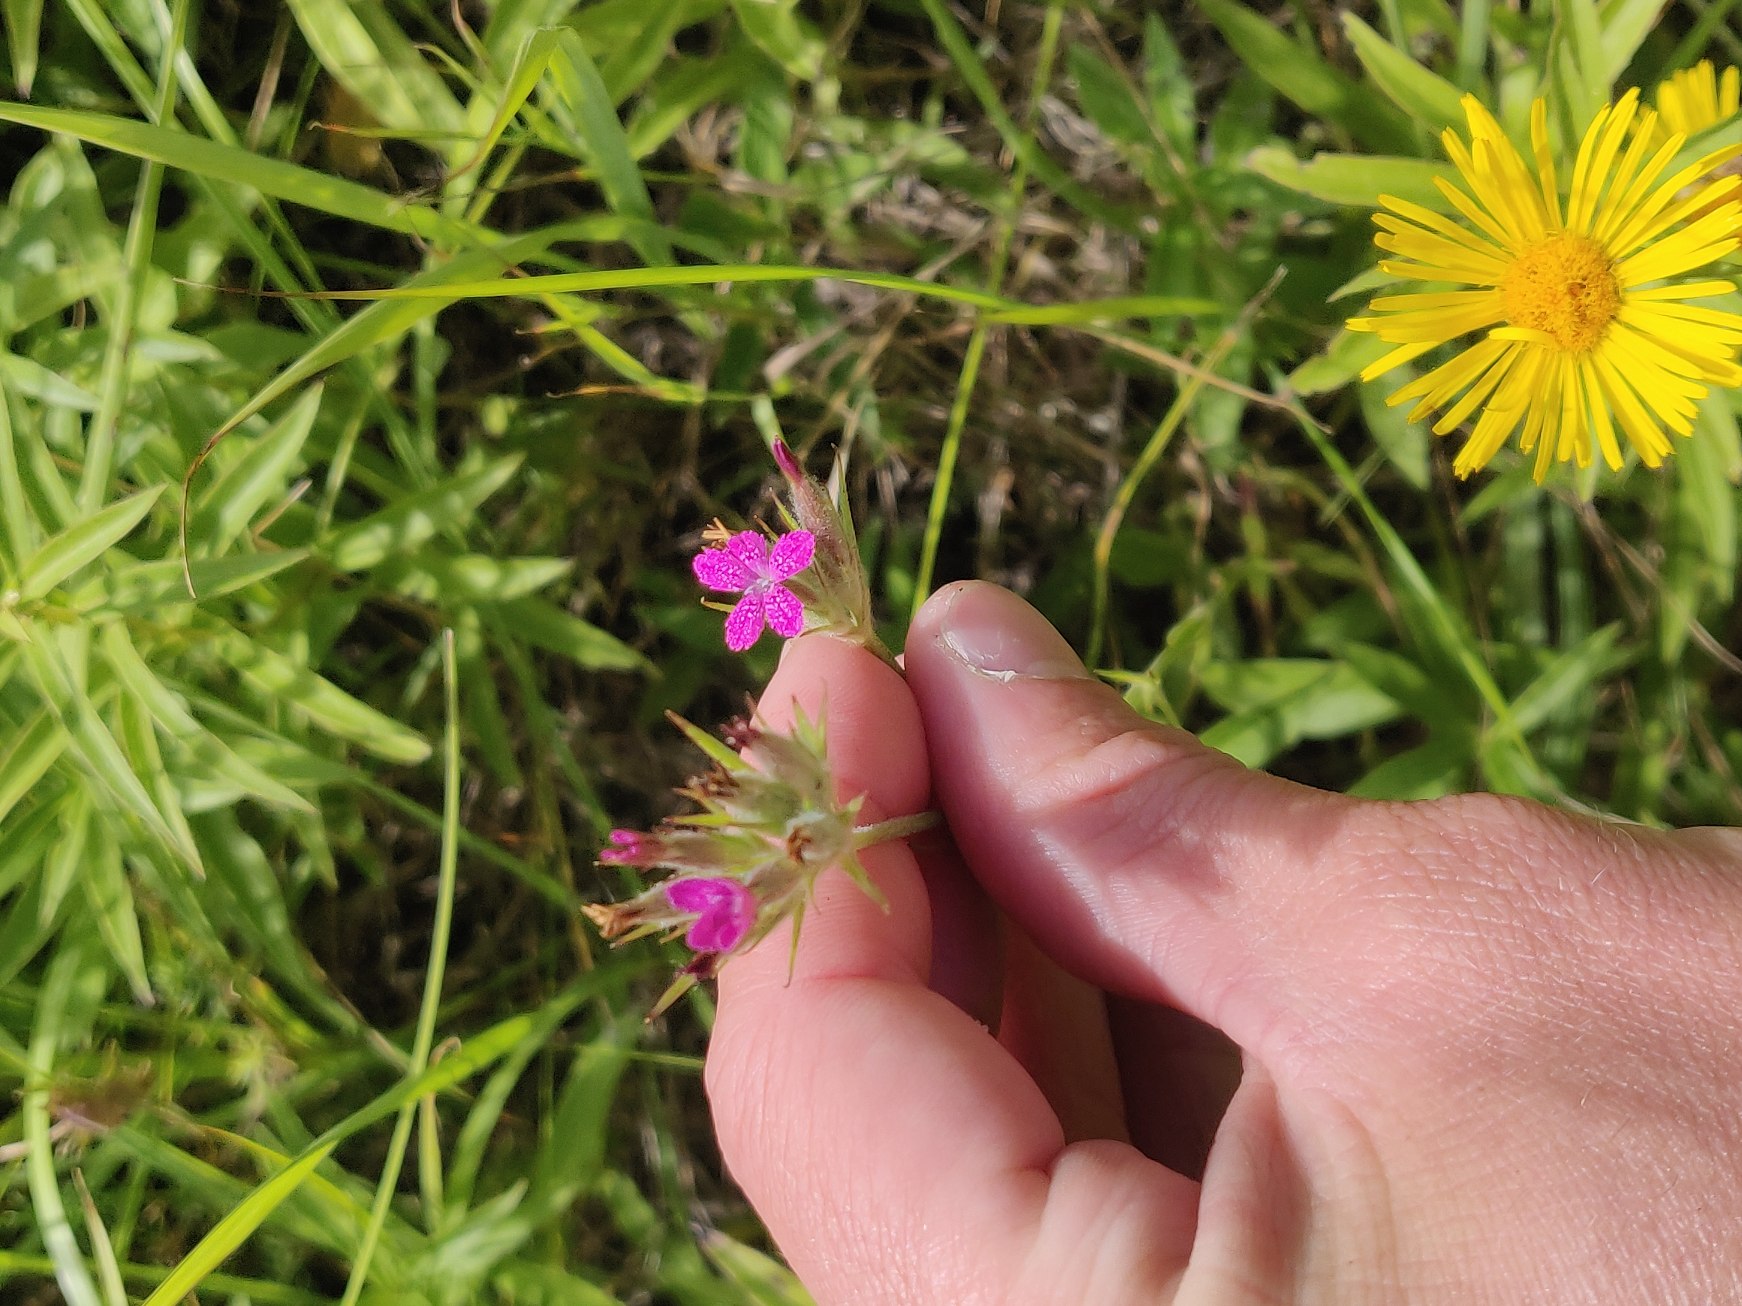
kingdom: Plantae
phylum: Tracheophyta
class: Magnoliopsida
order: Caryophyllales
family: Caryophyllaceae
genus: Dianthus
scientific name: Dianthus armeria
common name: Kost-nellike
